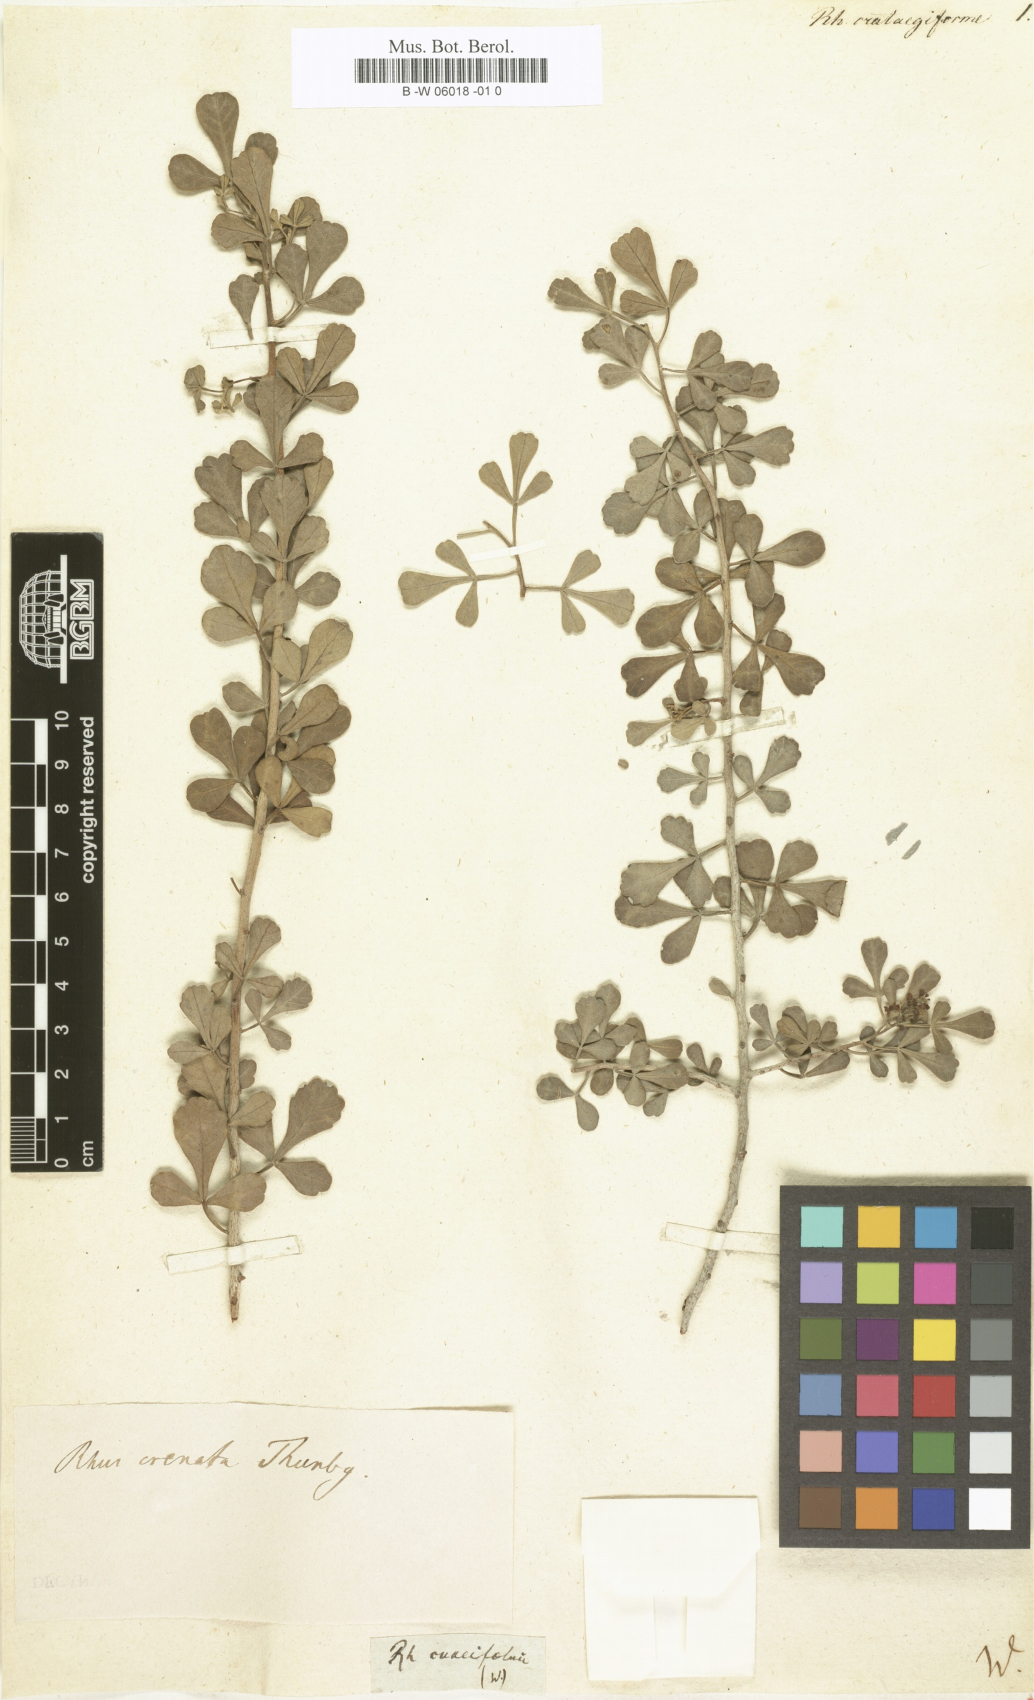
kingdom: Plantae
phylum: Tracheophyta
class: Magnoliopsida
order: Sapindales
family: Anacardiaceae
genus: Searsia
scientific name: Searsia tripartita
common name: Tripartite sumac
